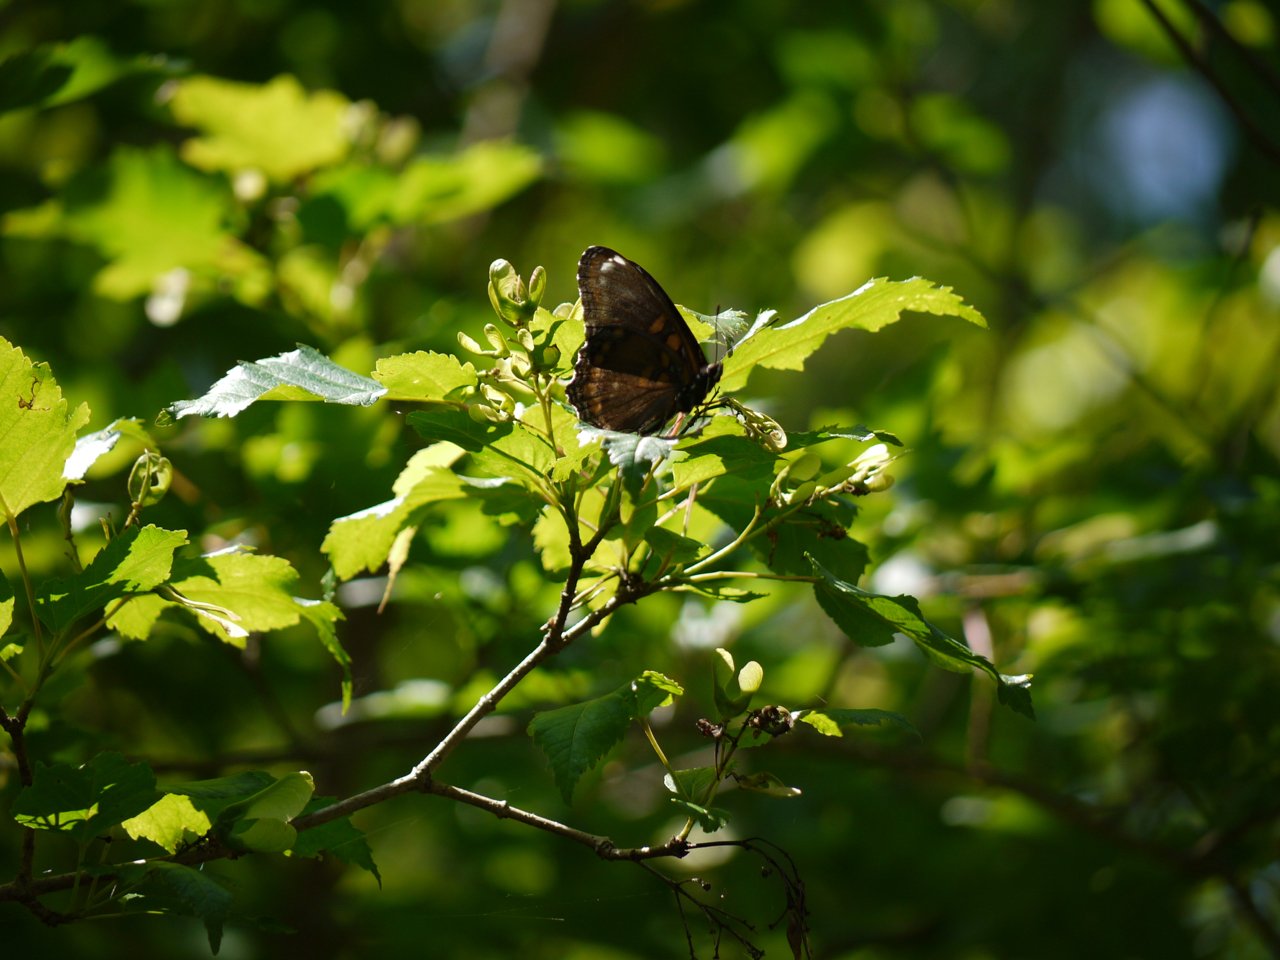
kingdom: Animalia
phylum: Arthropoda
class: Insecta
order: Lepidoptera
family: Nymphalidae
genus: Limenitis
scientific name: Limenitis astyanax
